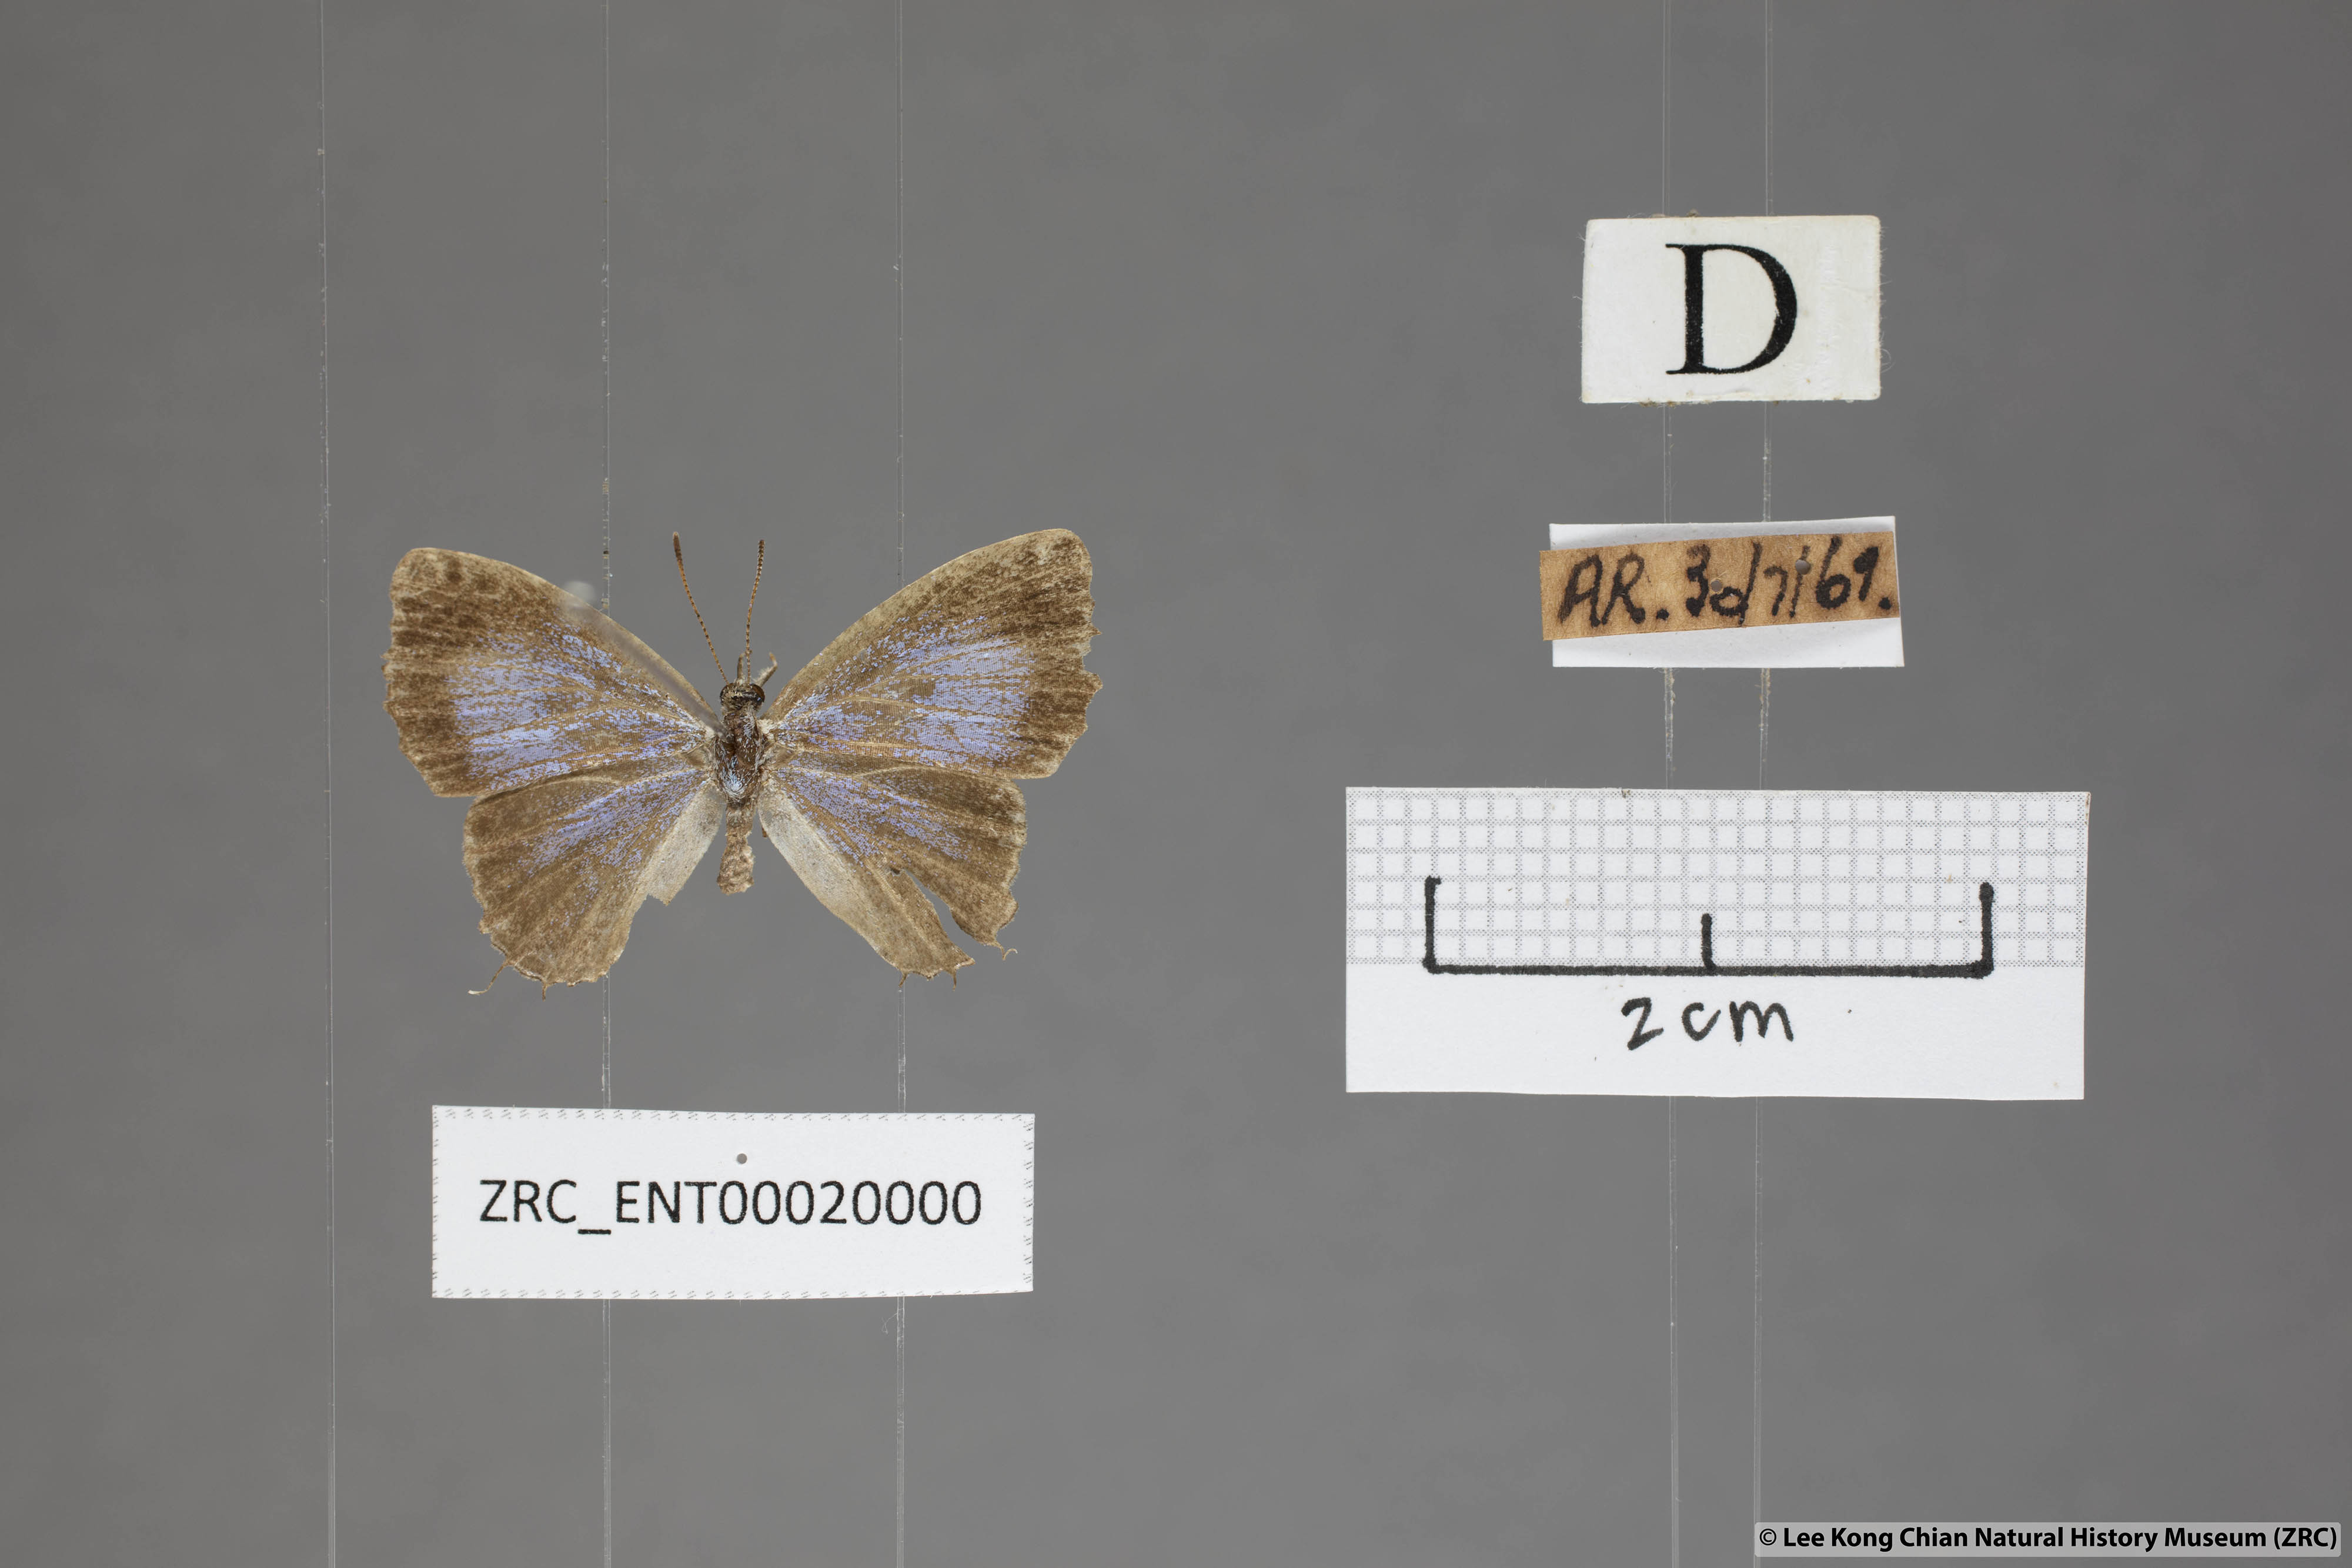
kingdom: Animalia
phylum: Arthropoda
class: Insecta
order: Lepidoptera
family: Lycaenidae
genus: Catapaecilma
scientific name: Catapaecilma elegans
